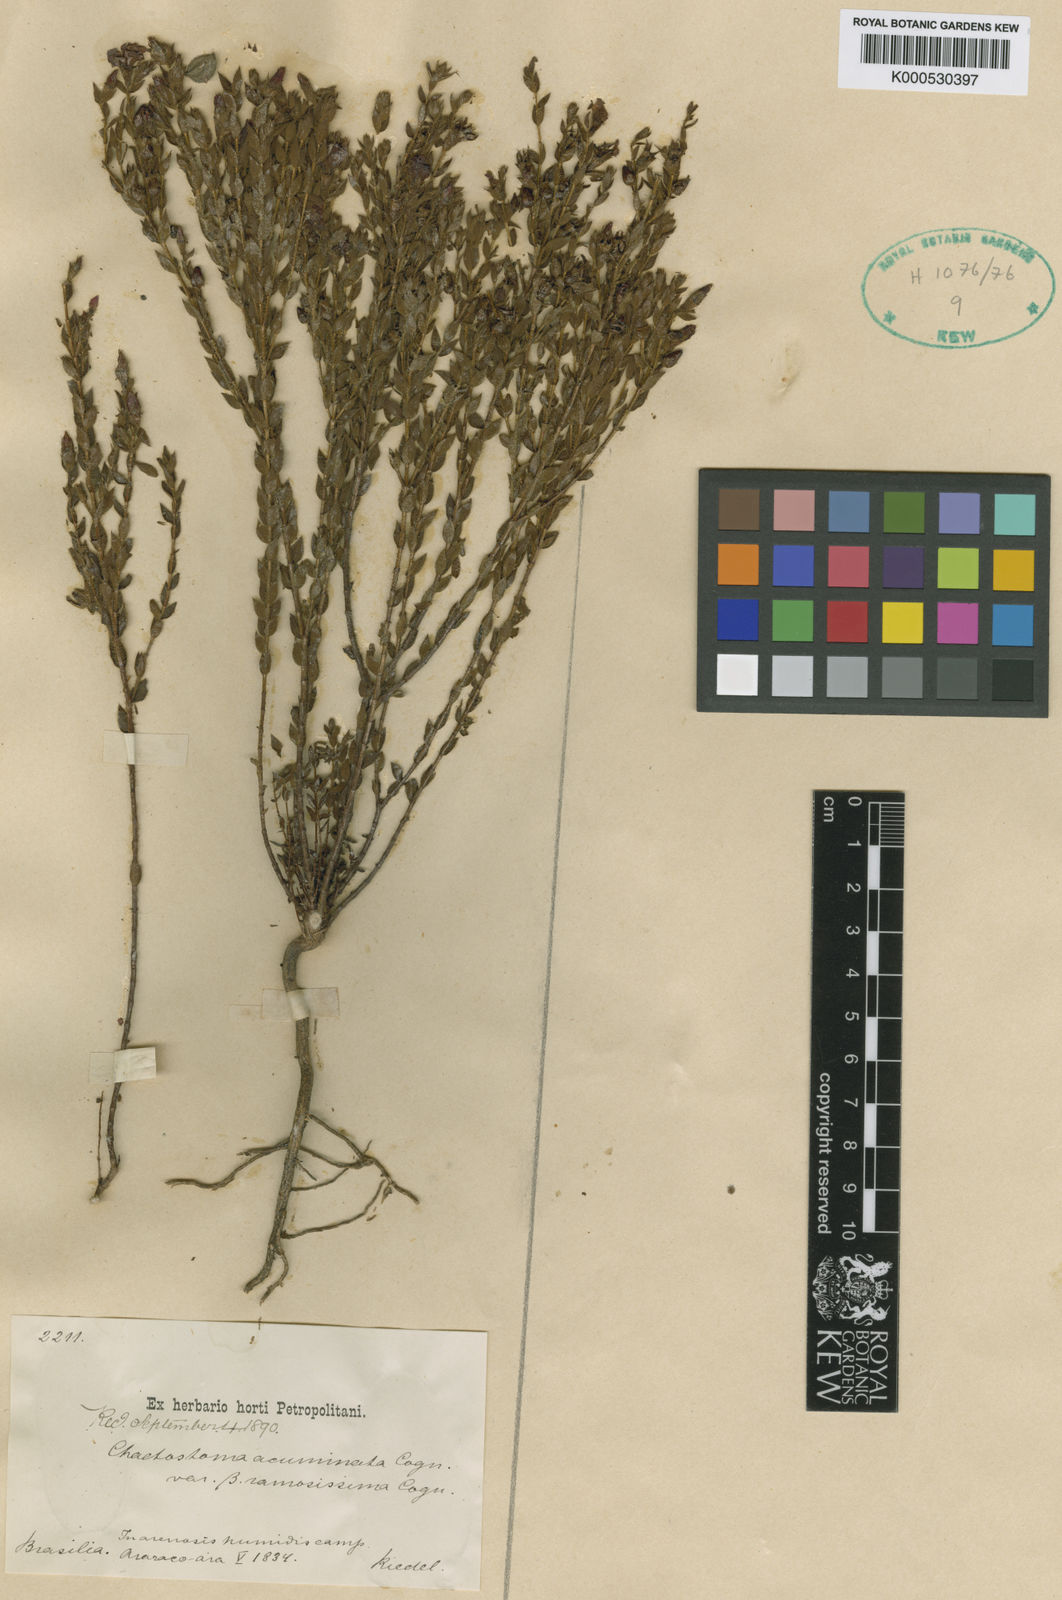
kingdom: Plantae
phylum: Tracheophyta
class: Magnoliopsida
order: Myrtales
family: Melastomataceae
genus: Microlicia
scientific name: Microlicia
